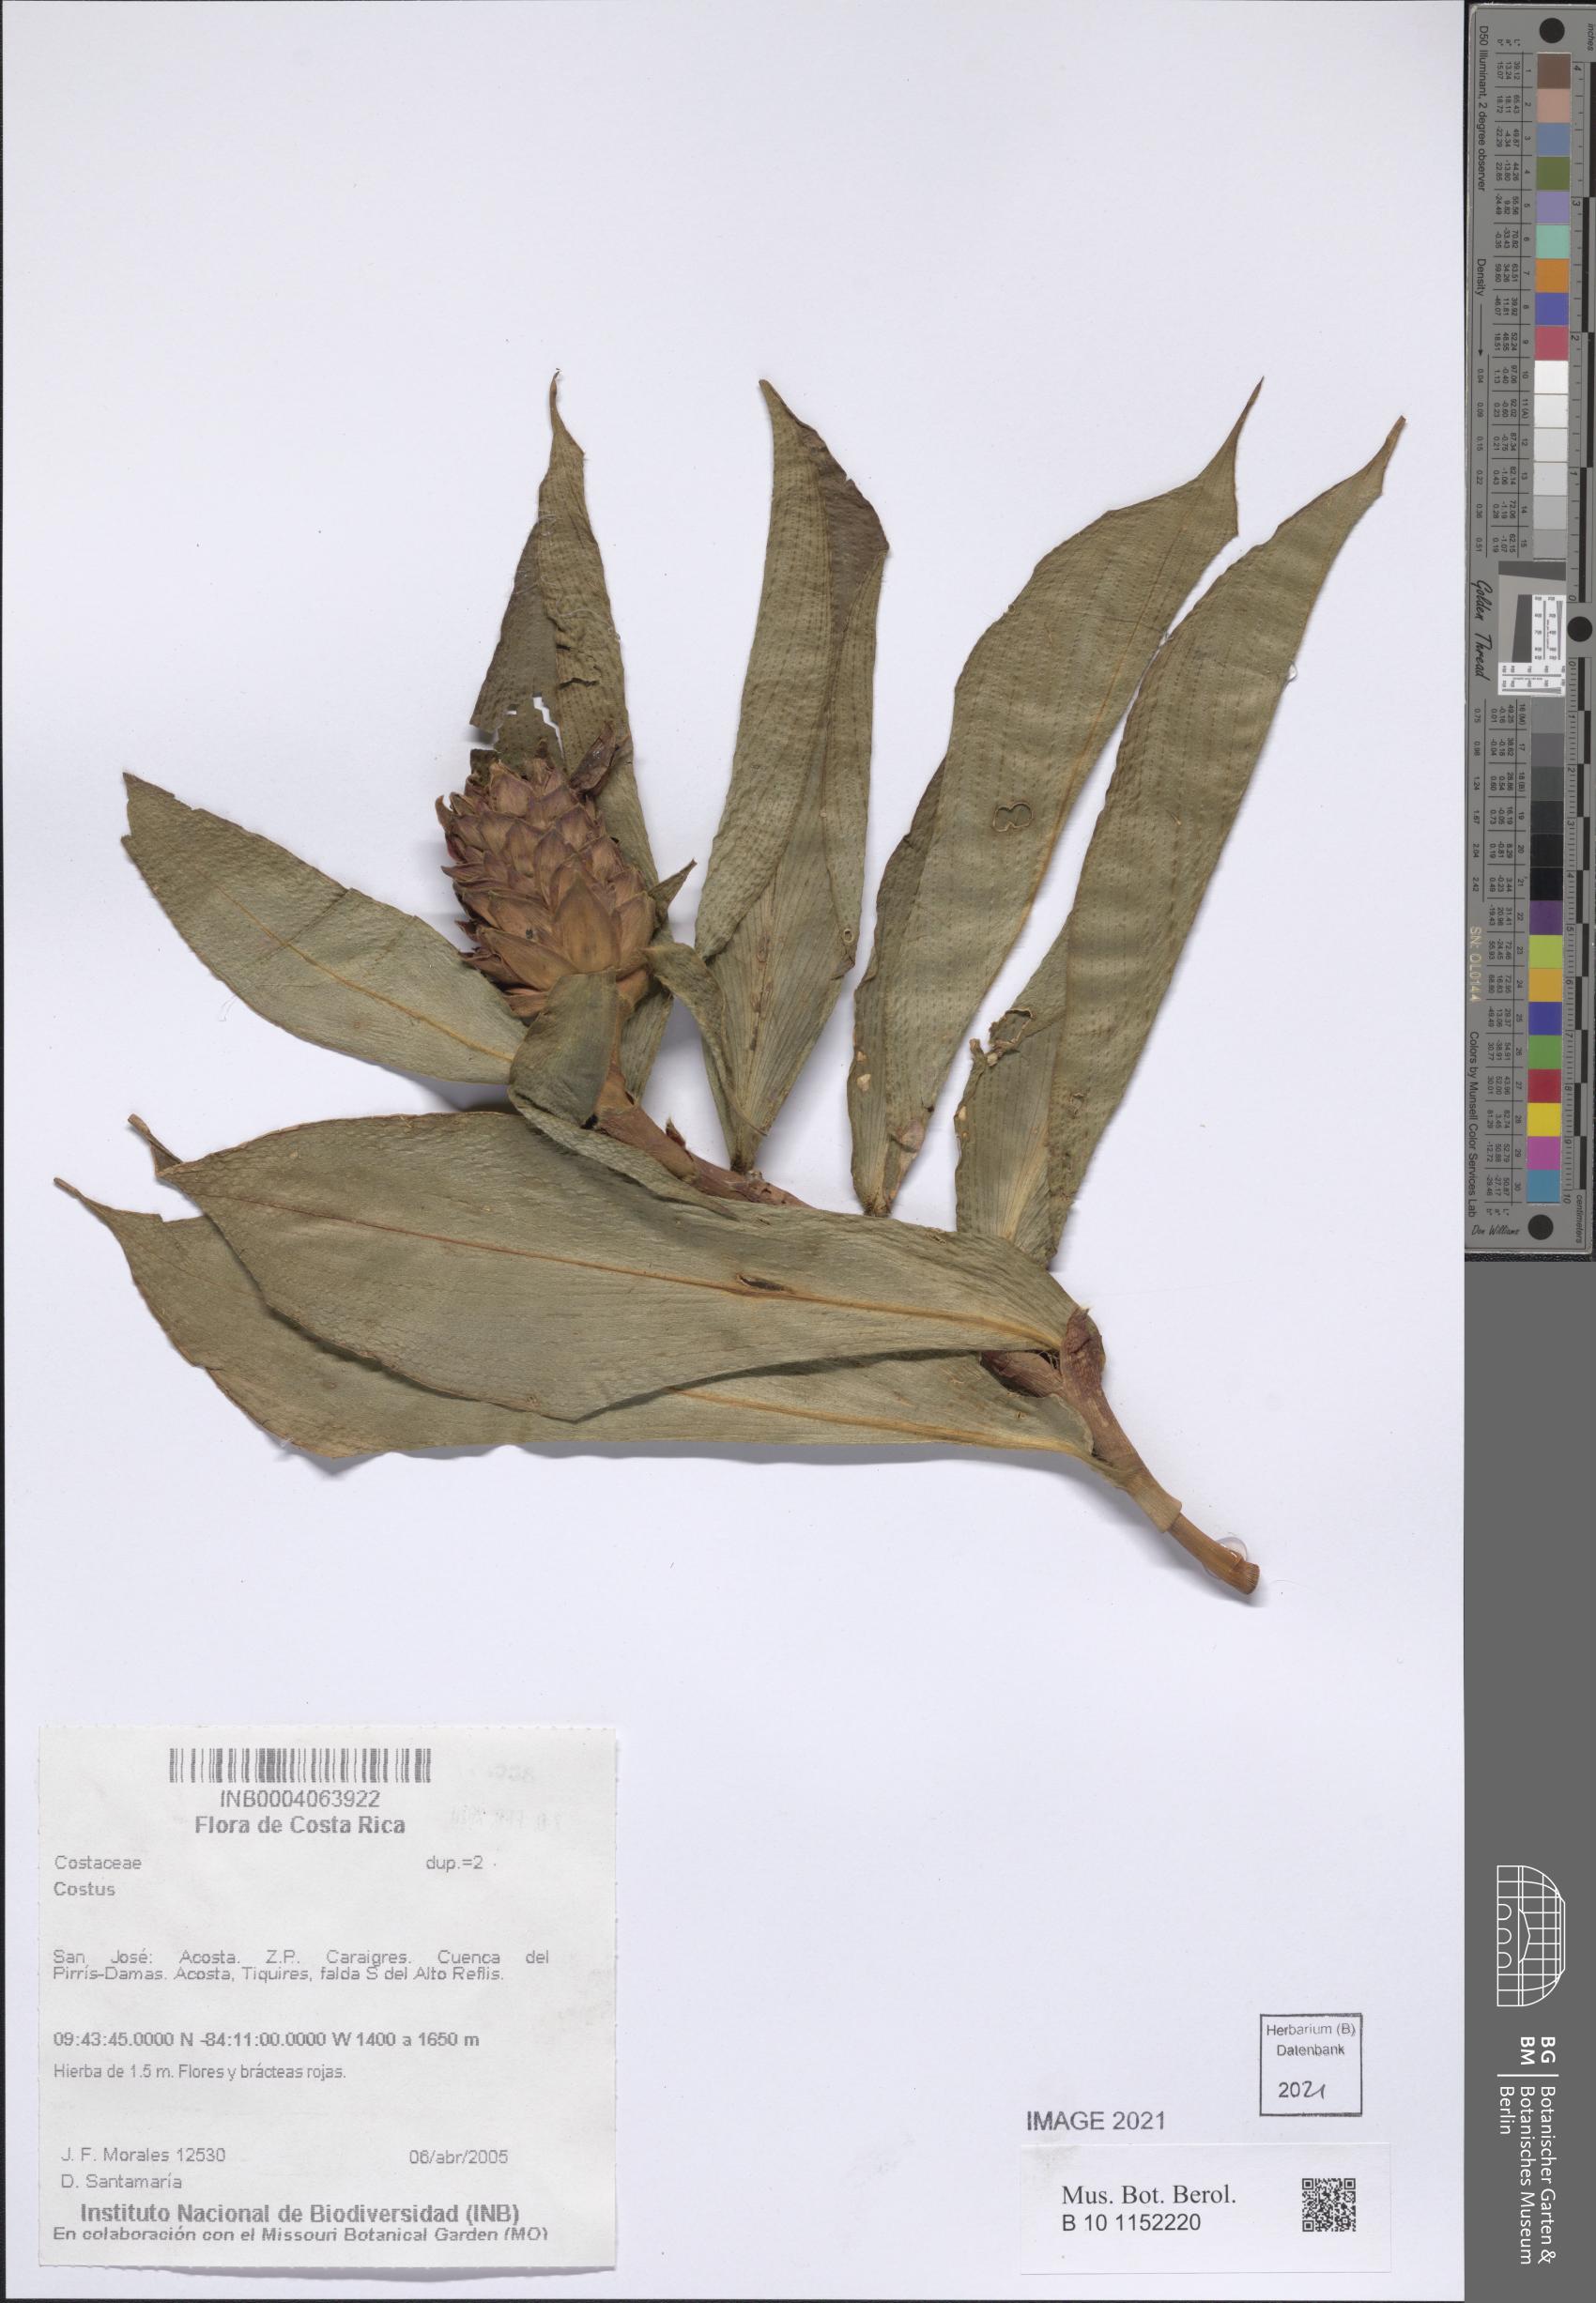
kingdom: Plantae
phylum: Tracheophyta
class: Liliopsida
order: Zingiberales
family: Costaceae
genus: Costus
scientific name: Costus
